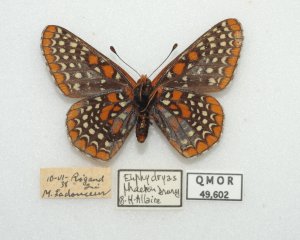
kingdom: Animalia
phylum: Arthropoda
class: Insecta
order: Lepidoptera
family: Nymphalidae
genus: Euphydryas
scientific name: Euphydryas phaeton
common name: Baltimore Checkerspot
